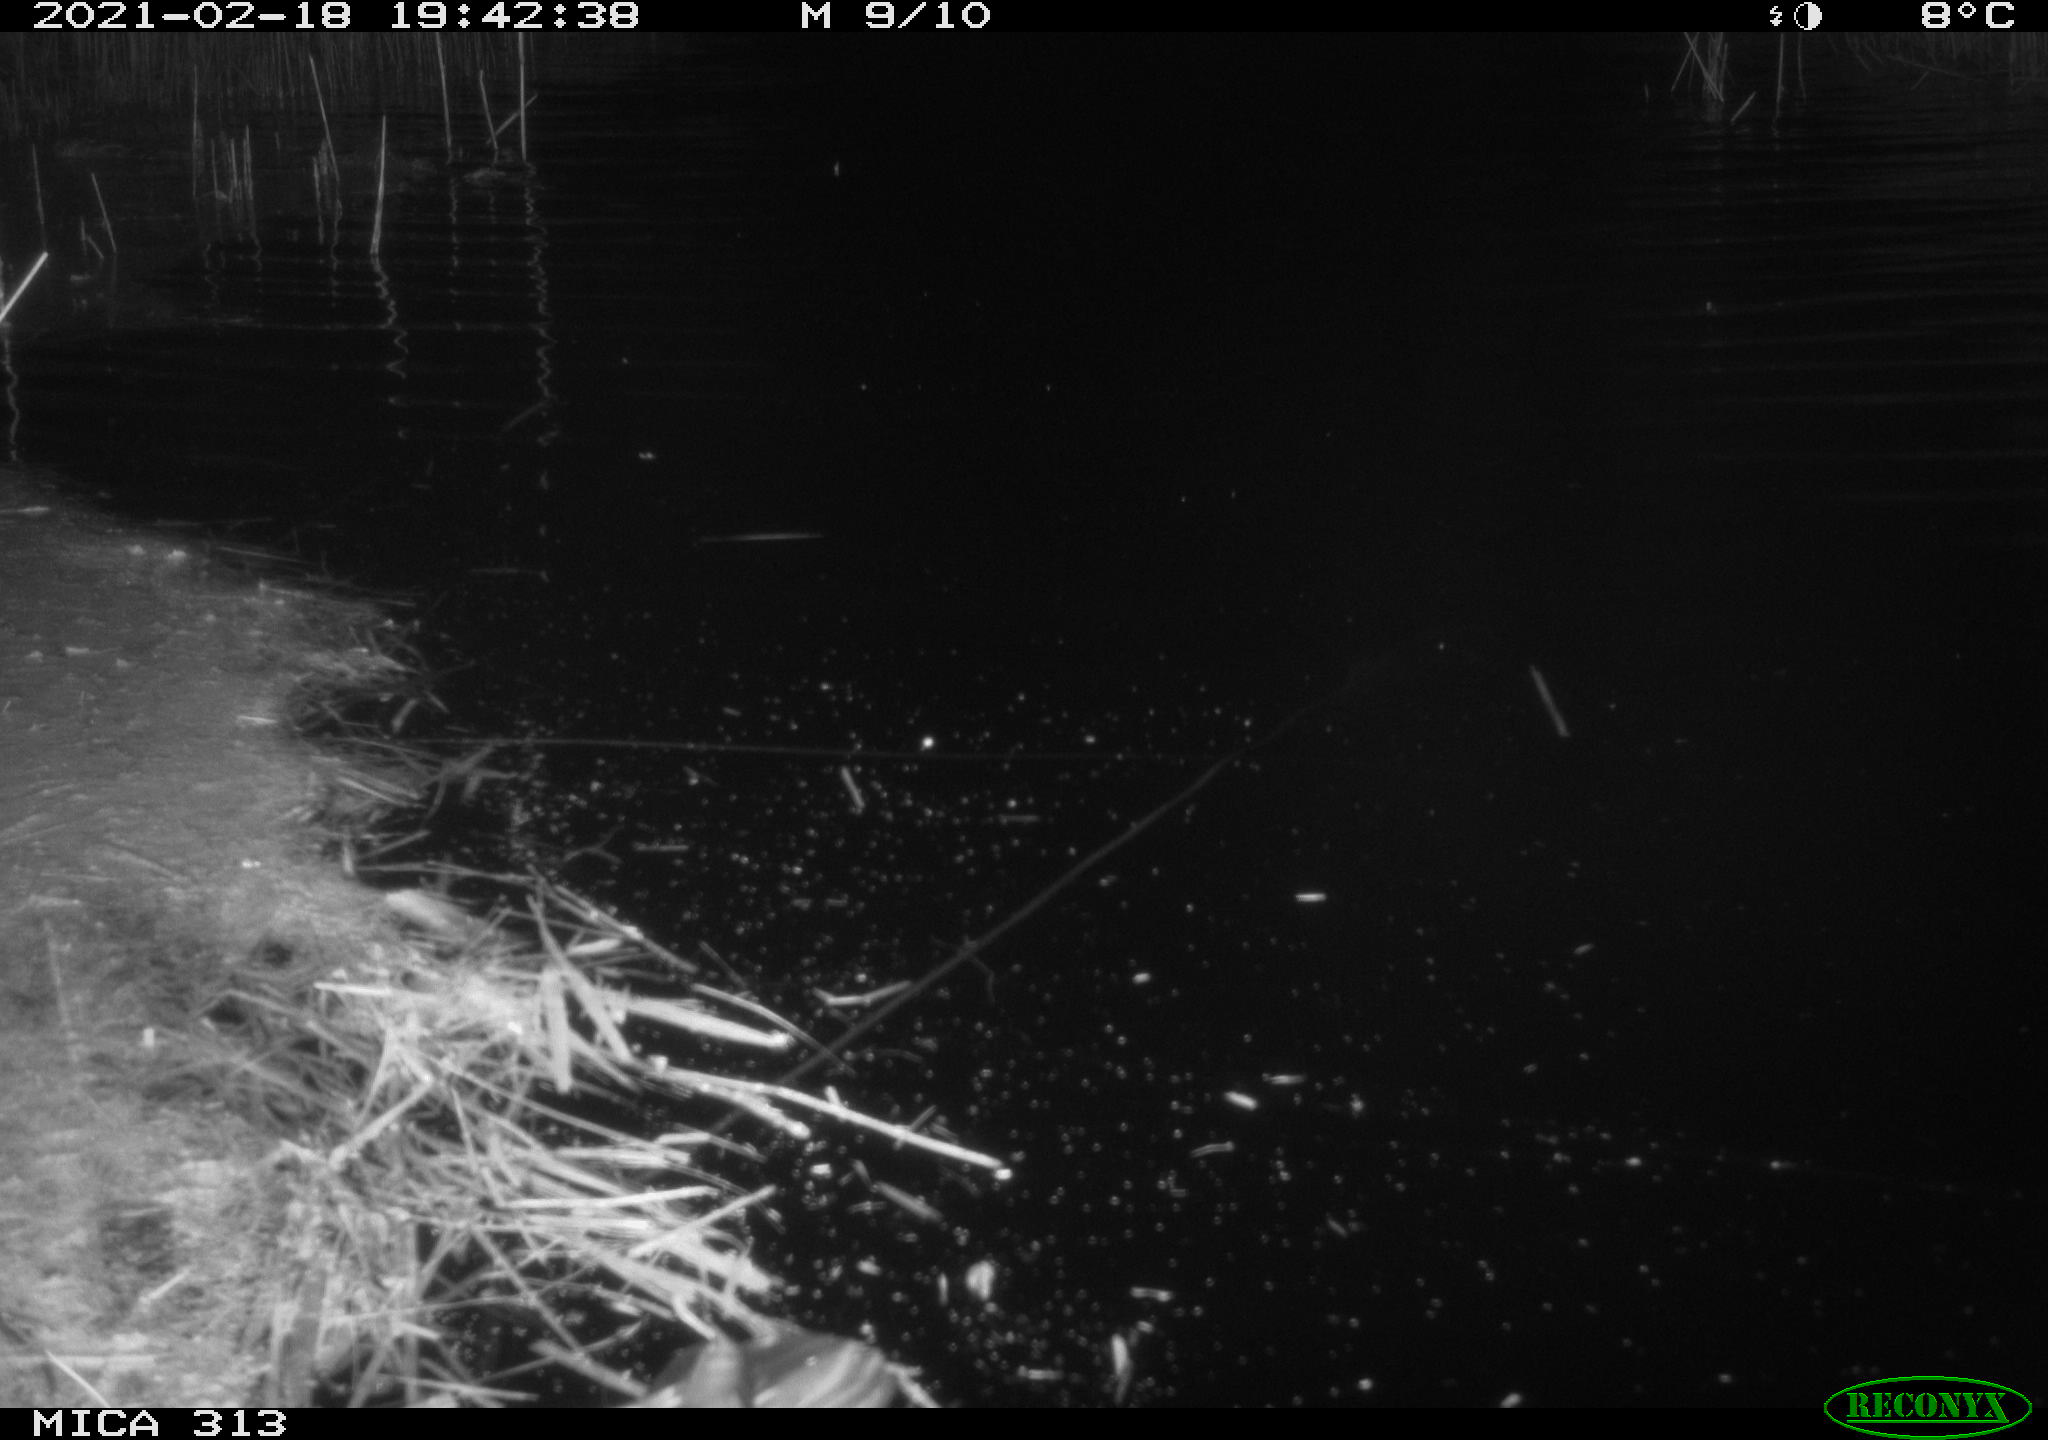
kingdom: Animalia
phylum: Chordata
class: Aves
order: Gruiformes
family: Rallidae
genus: Gallinula
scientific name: Gallinula chloropus
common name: Common moorhen
